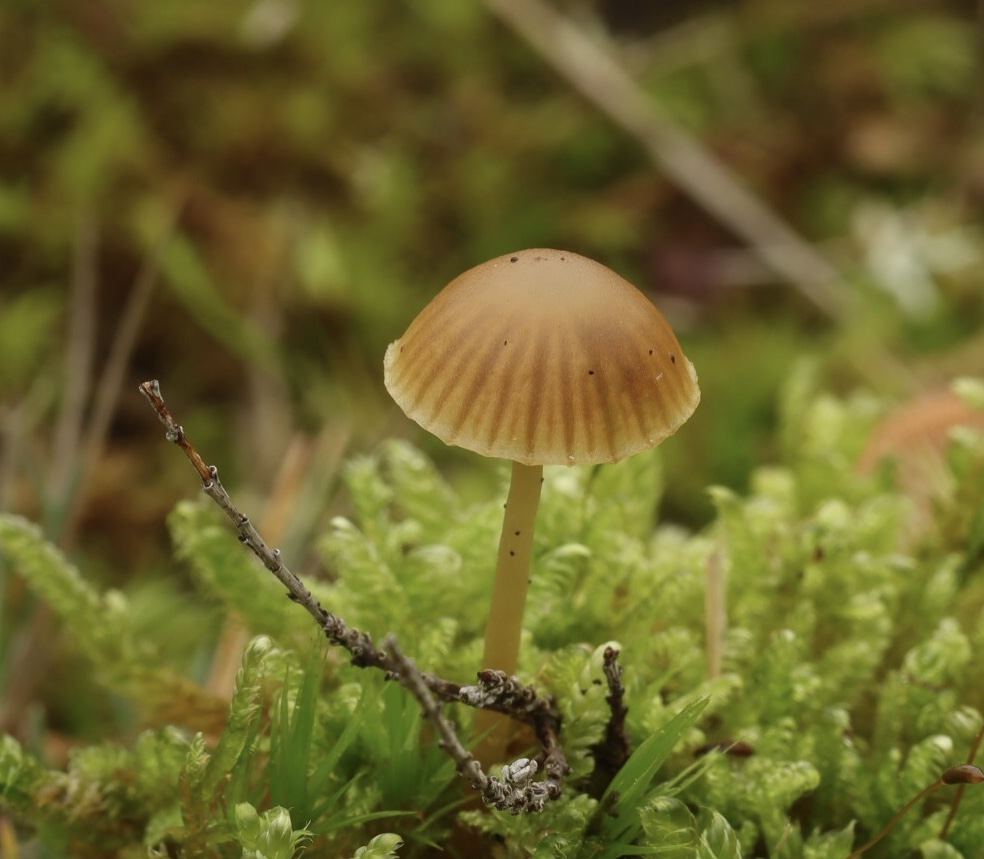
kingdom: Fungi
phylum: Basidiomycota
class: Agaricomycetes
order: Agaricales
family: Hymenogastraceae
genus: Galerina
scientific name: Galerina
